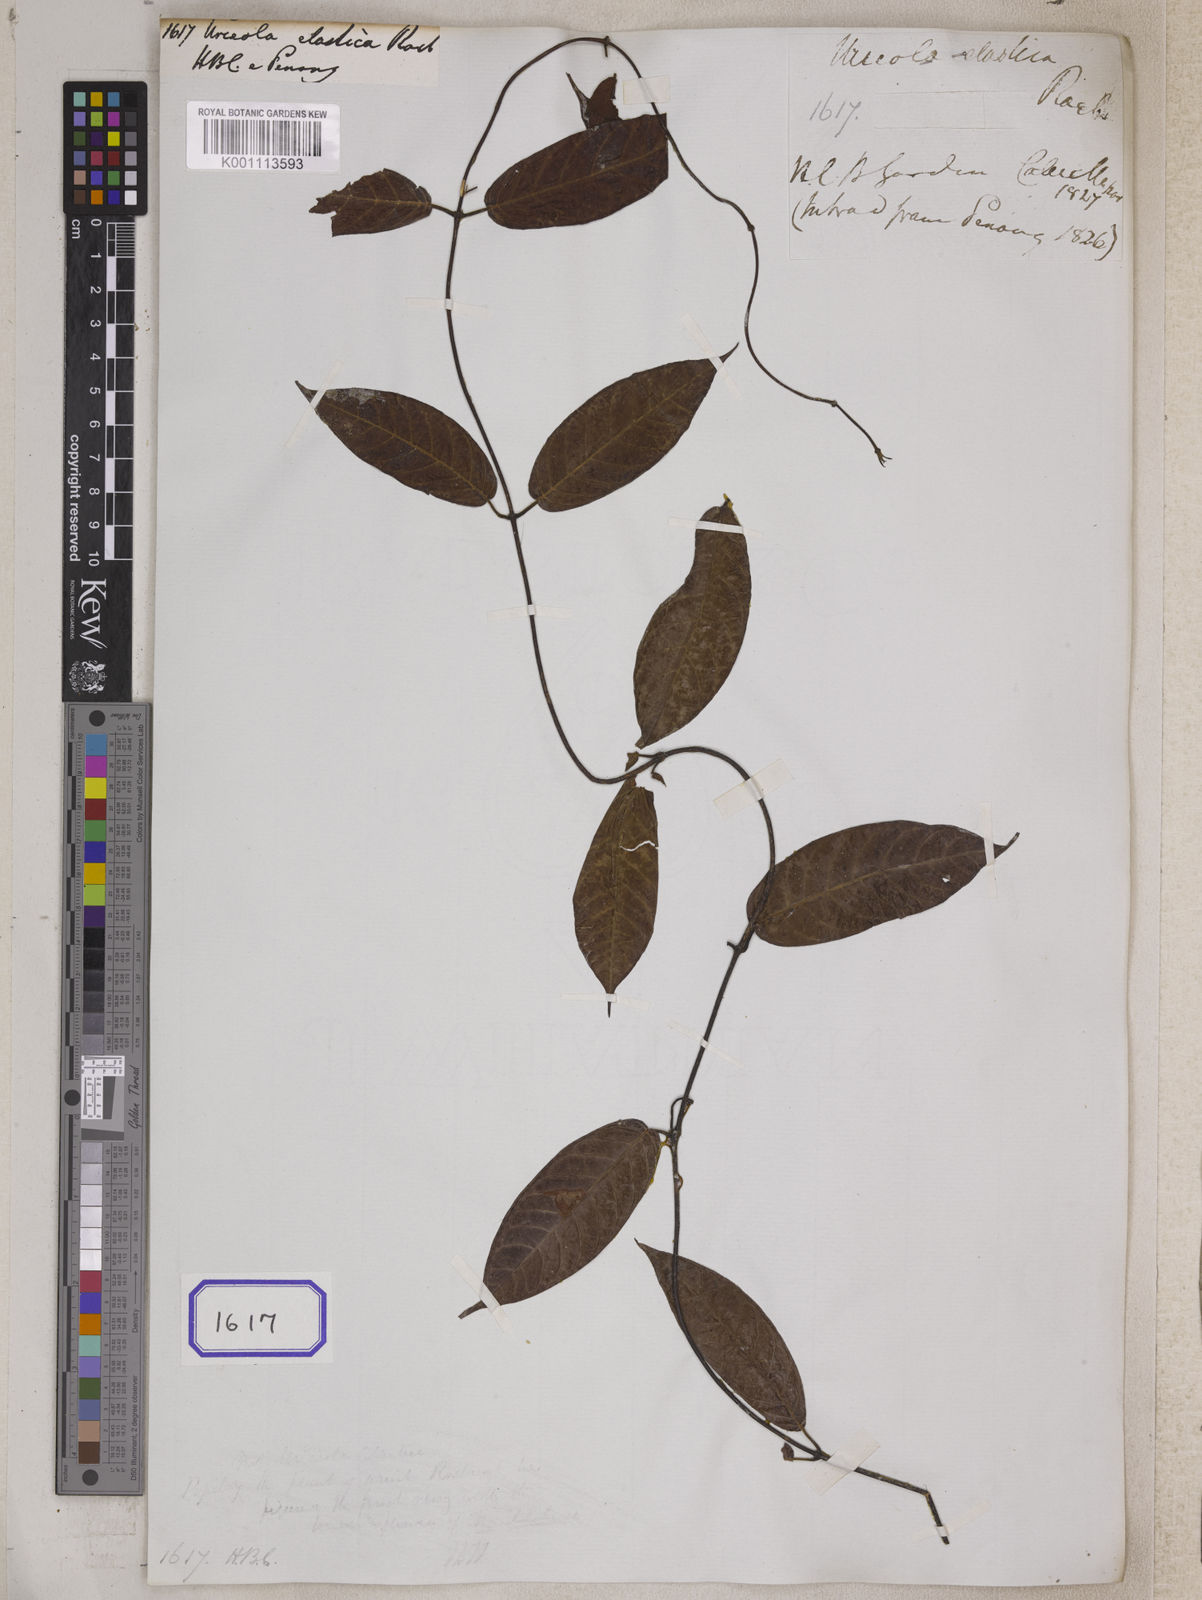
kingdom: Plantae
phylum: Tracheophyta
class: Magnoliopsida
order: Gentianales
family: Apocynaceae
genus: Urceola
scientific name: Urceola elastica
